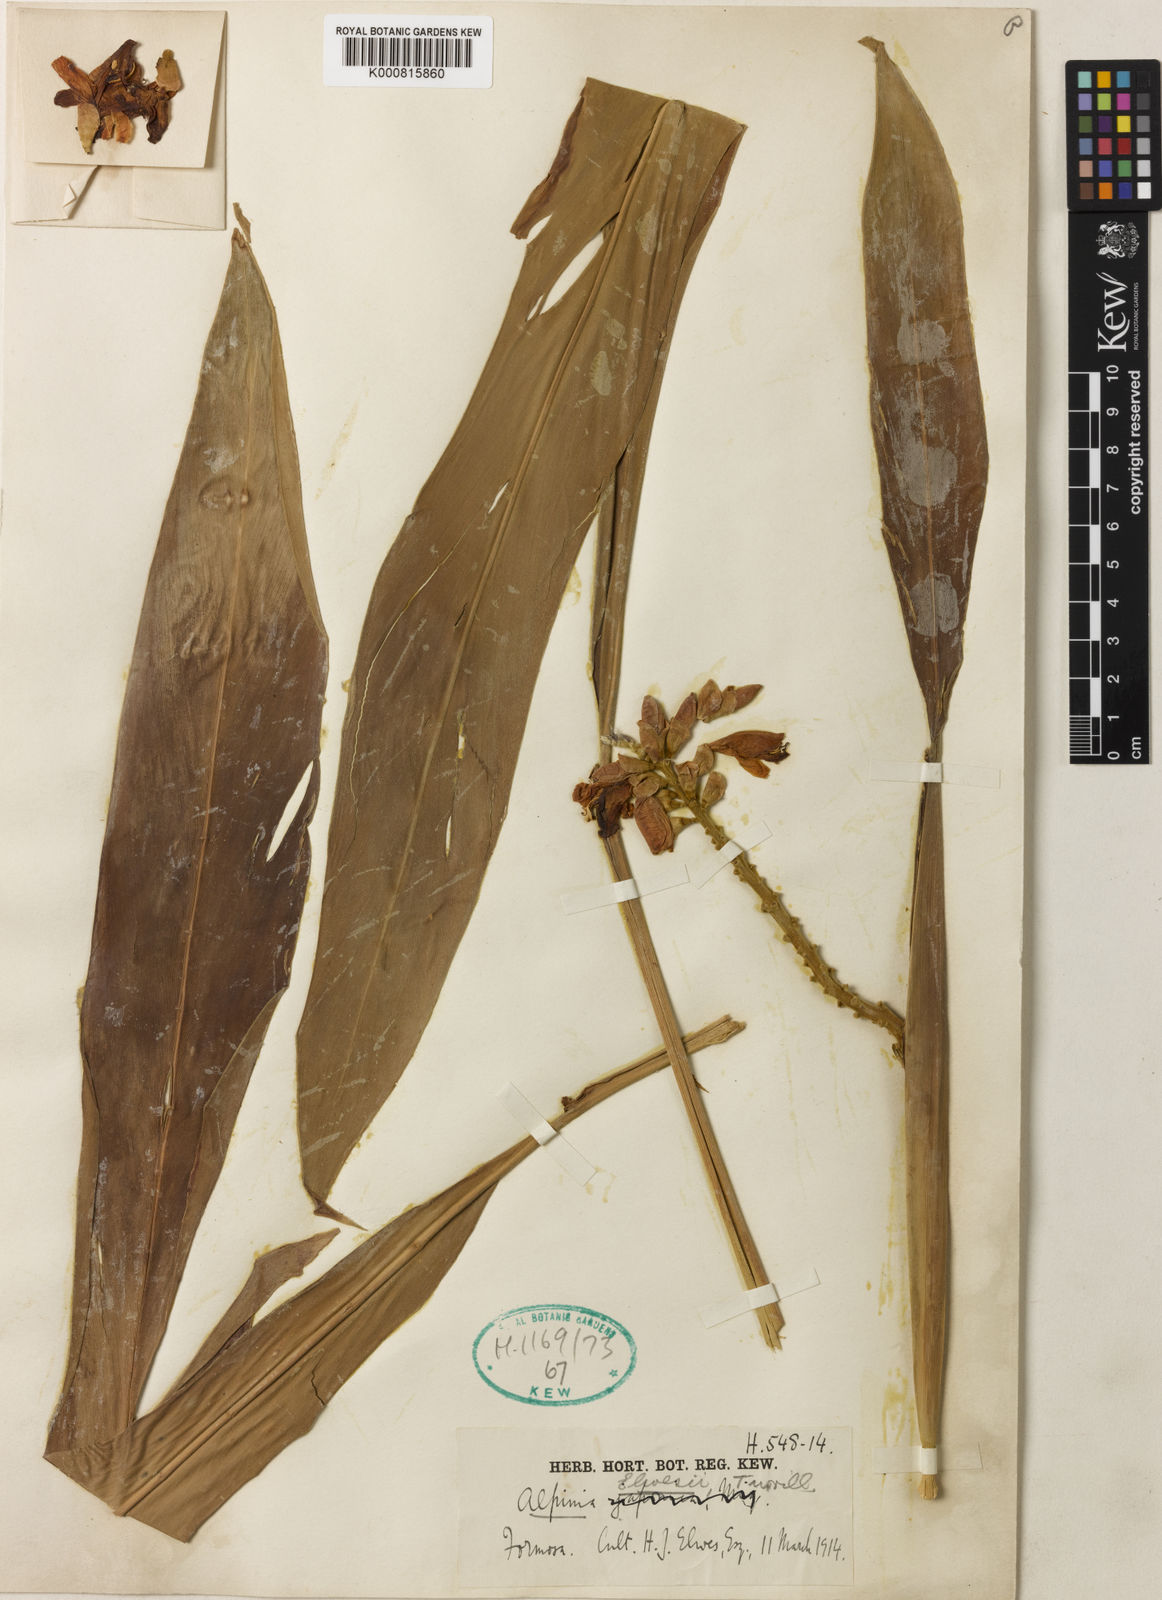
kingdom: Plantae
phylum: Tracheophyta
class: Liliopsida
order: Zingiberales
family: Zingiberaceae
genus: Alpinia
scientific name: Alpinia kawakamii
